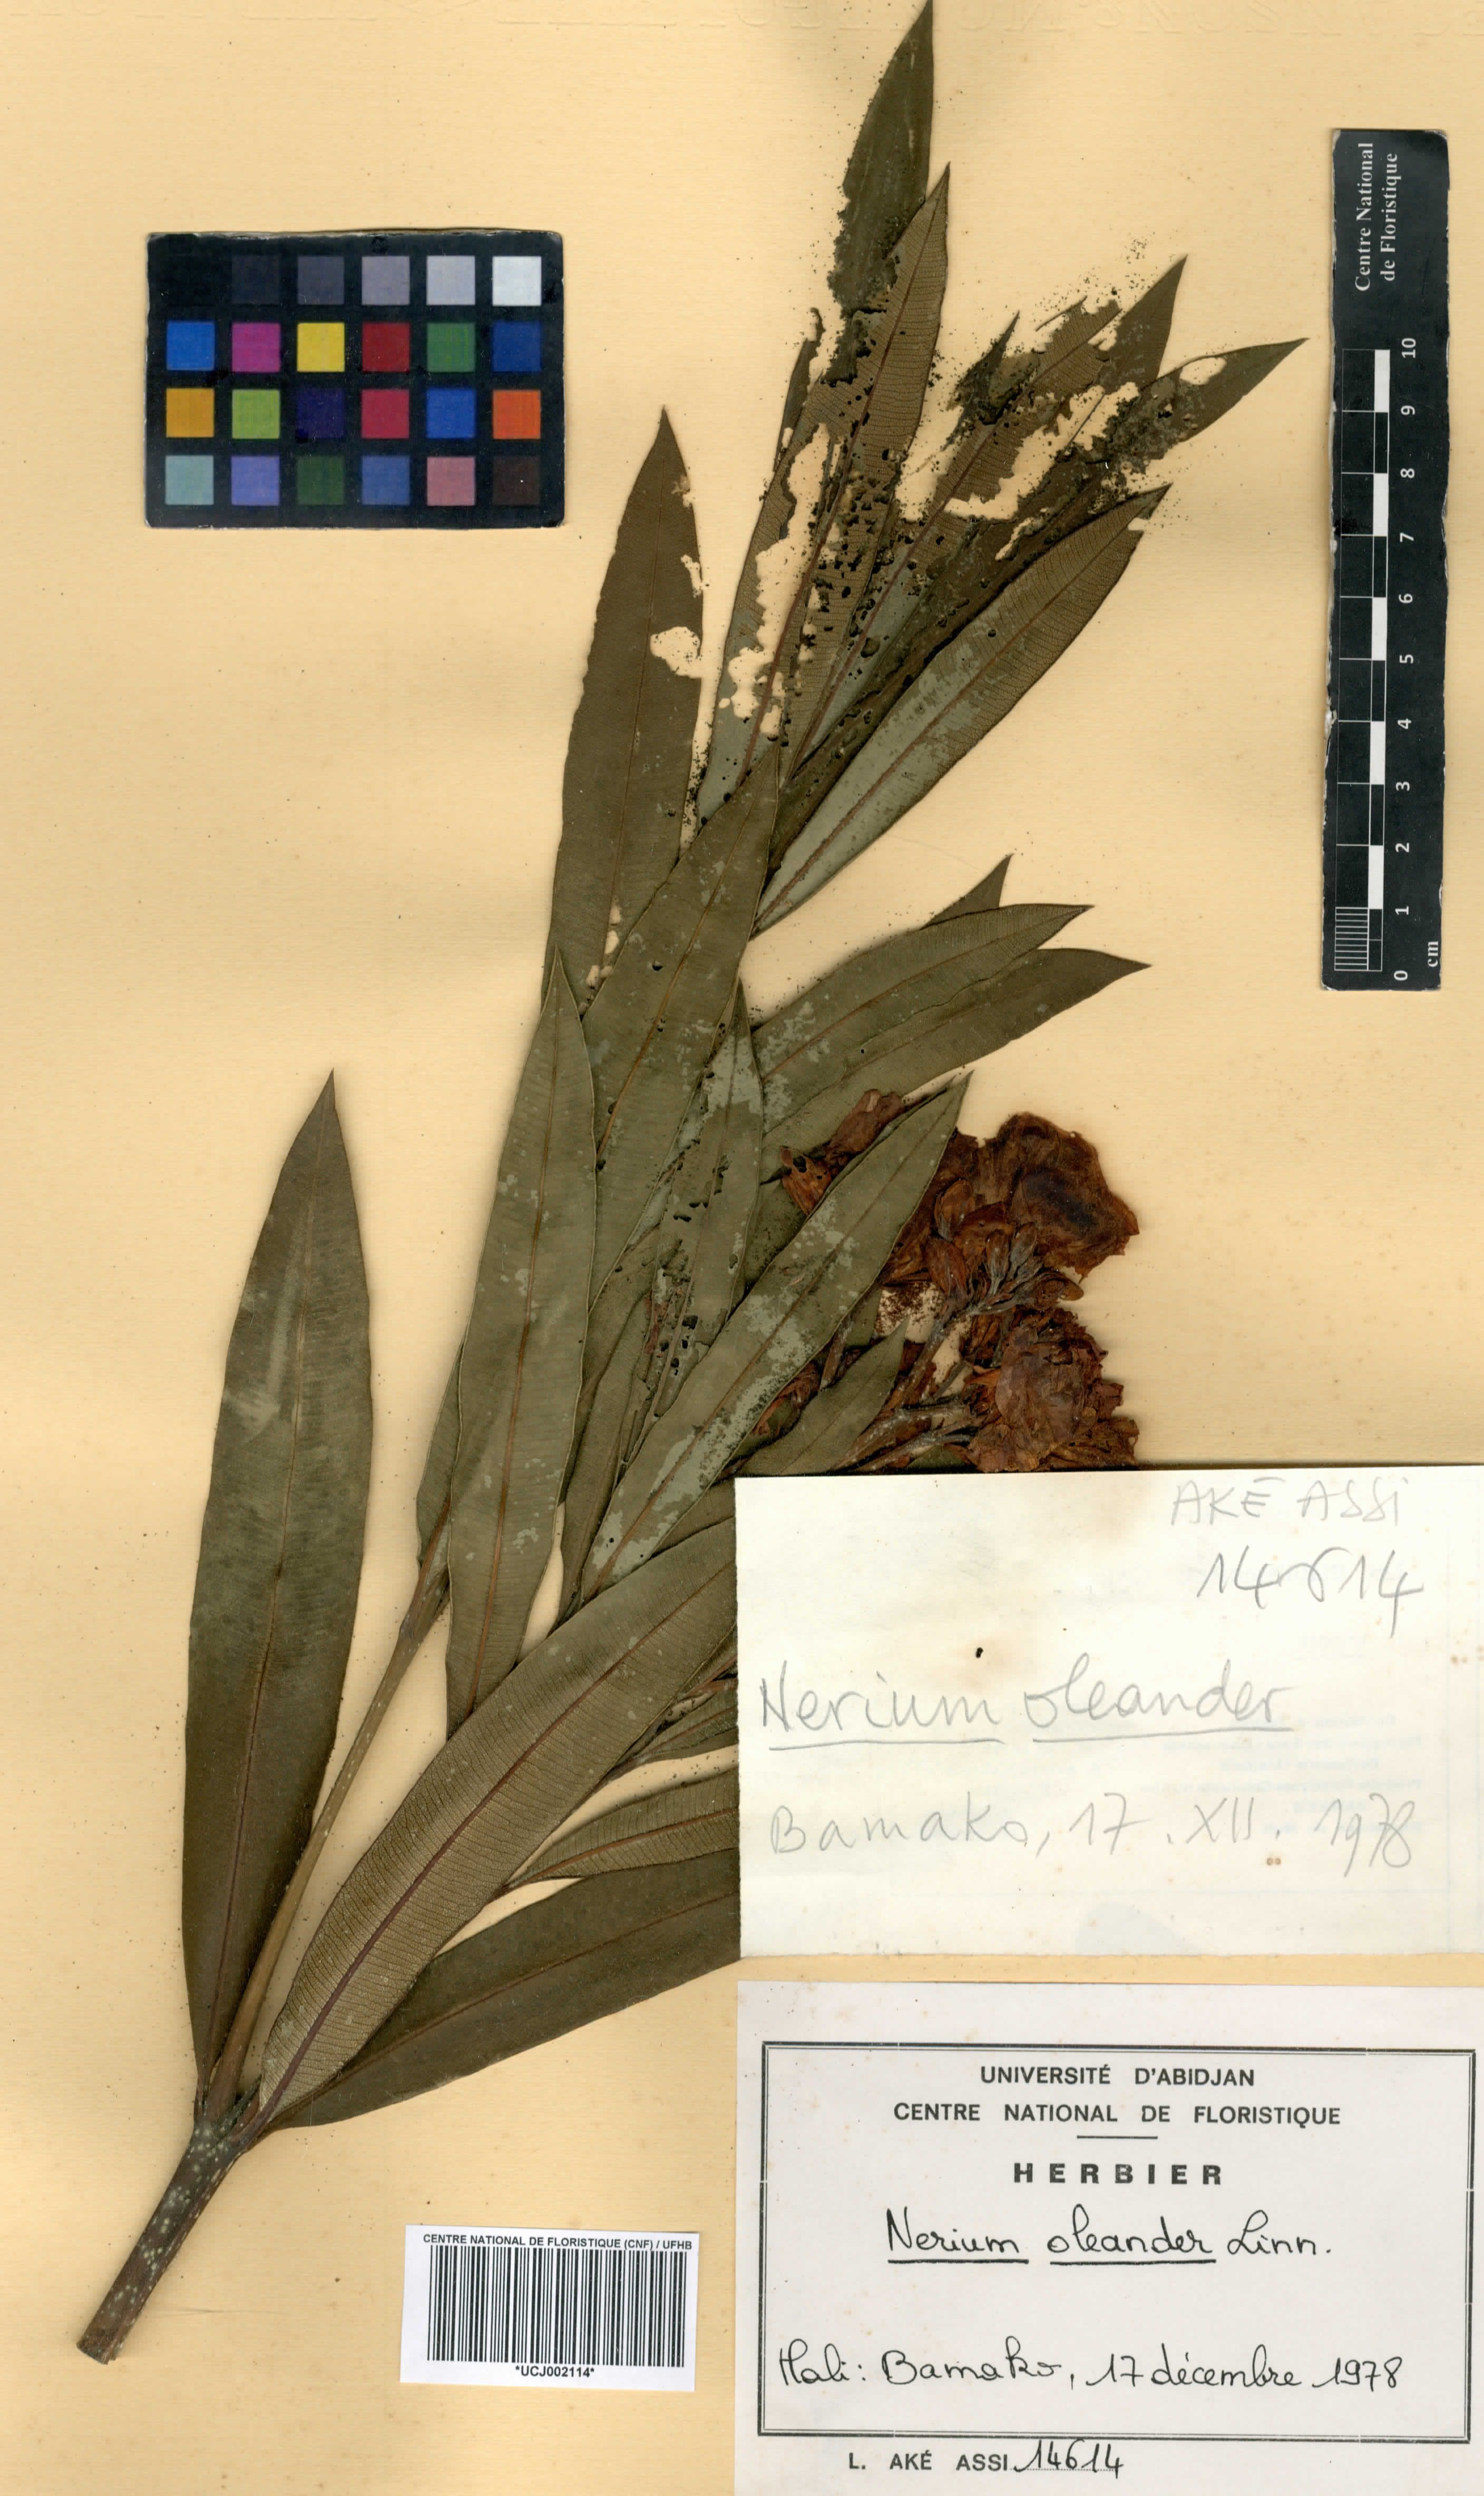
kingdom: Plantae
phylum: Tracheophyta
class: Magnoliopsida
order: Gentianales
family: Apocynaceae
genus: Nerium
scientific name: Nerium oleander
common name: Oleander
